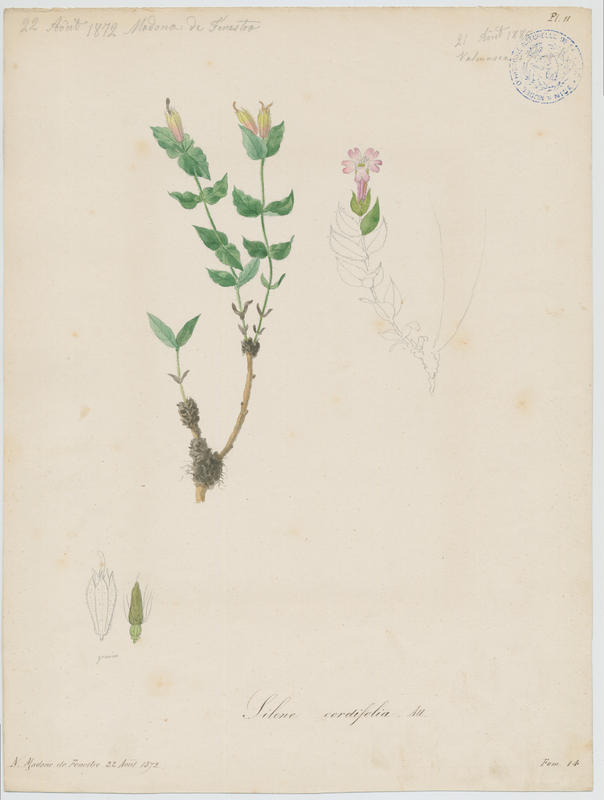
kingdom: Plantae
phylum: Tracheophyta
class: Magnoliopsida
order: Caryophyllales
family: Caryophyllaceae
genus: Silene
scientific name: Silene cordifolia
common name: Heart-leaved catchfly
